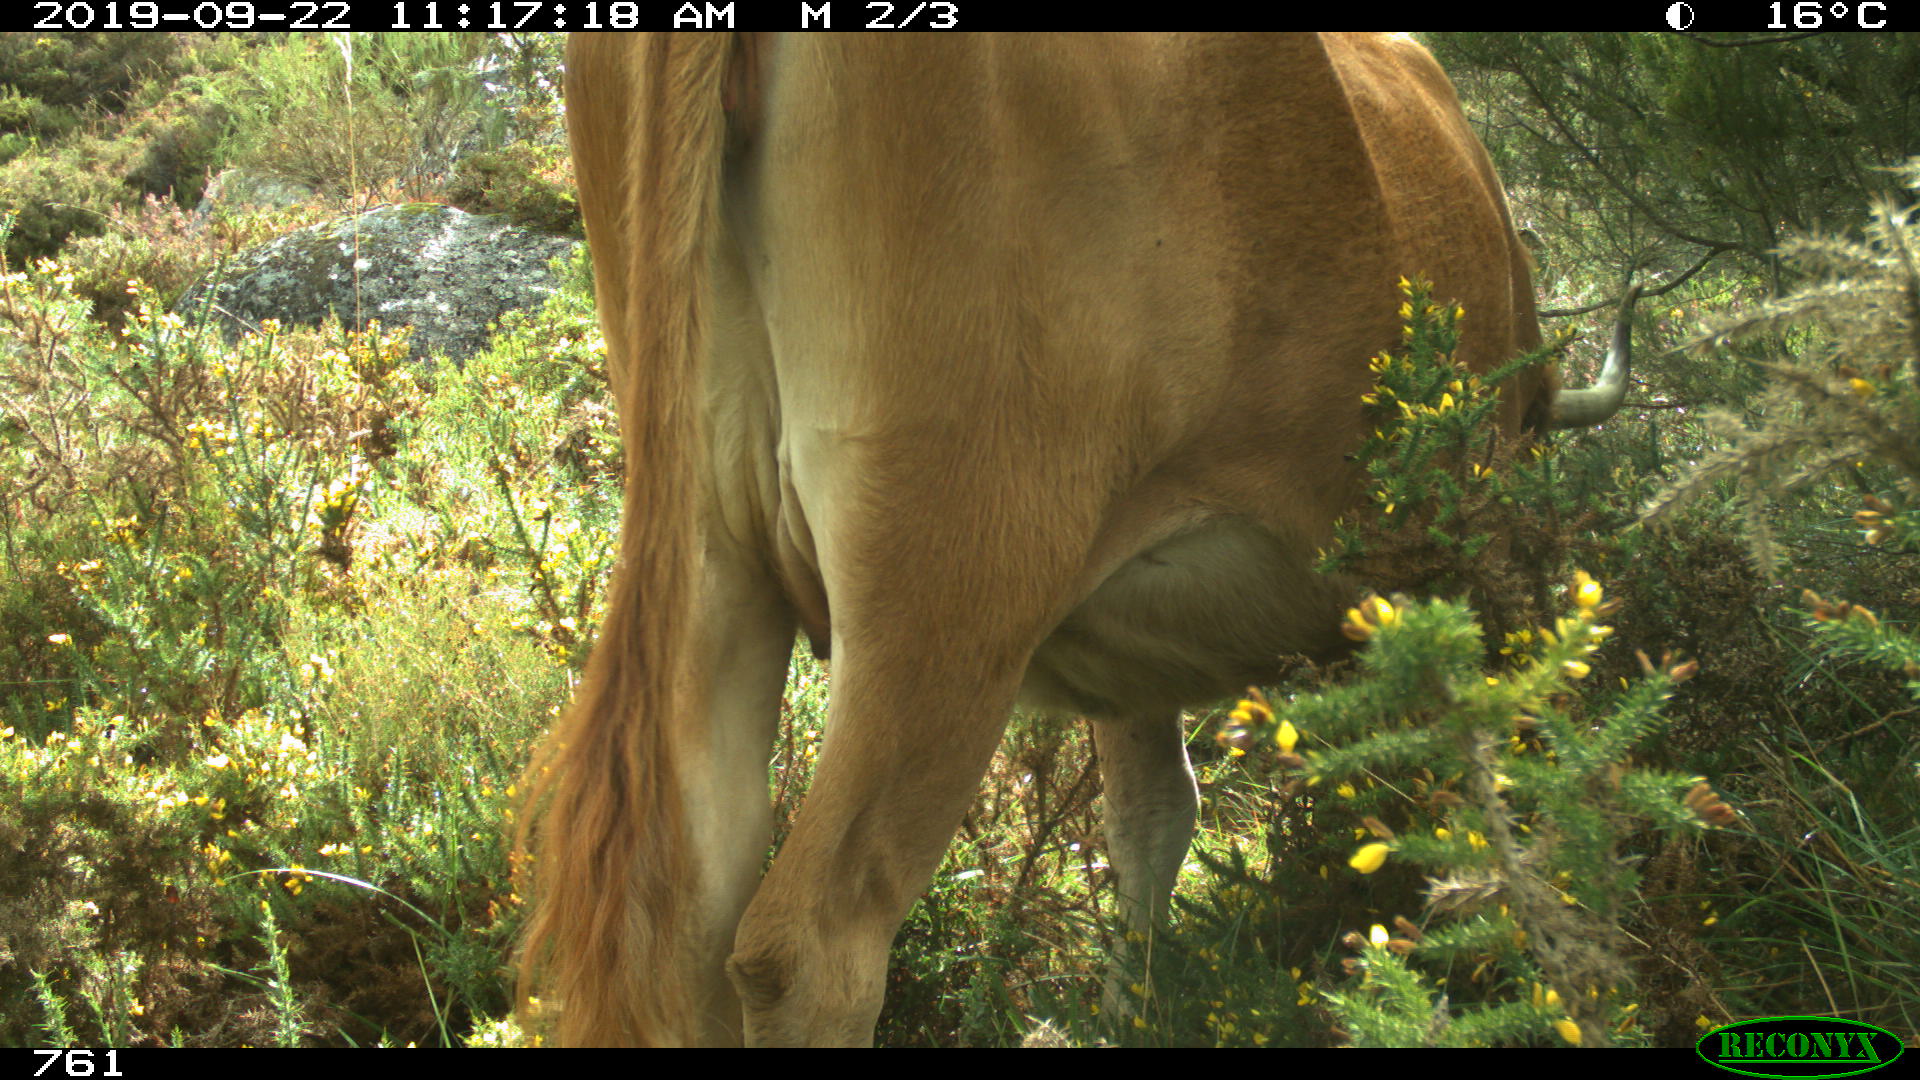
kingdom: Animalia
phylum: Chordata
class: Mammalia
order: Artiodactyla
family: Bovidae
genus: Bos
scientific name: Bos taurus
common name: Domesticated cattle
